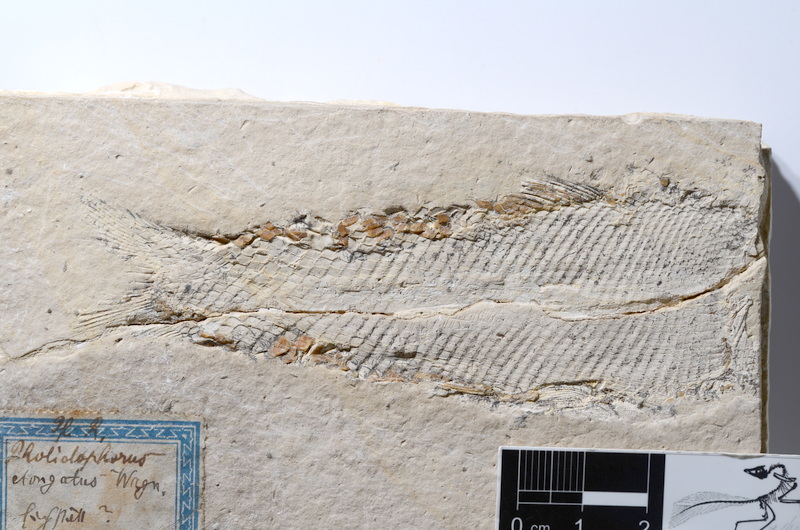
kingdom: Animalia
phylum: Chordata
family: Ophiopsiellidae
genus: Furo
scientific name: Furo
